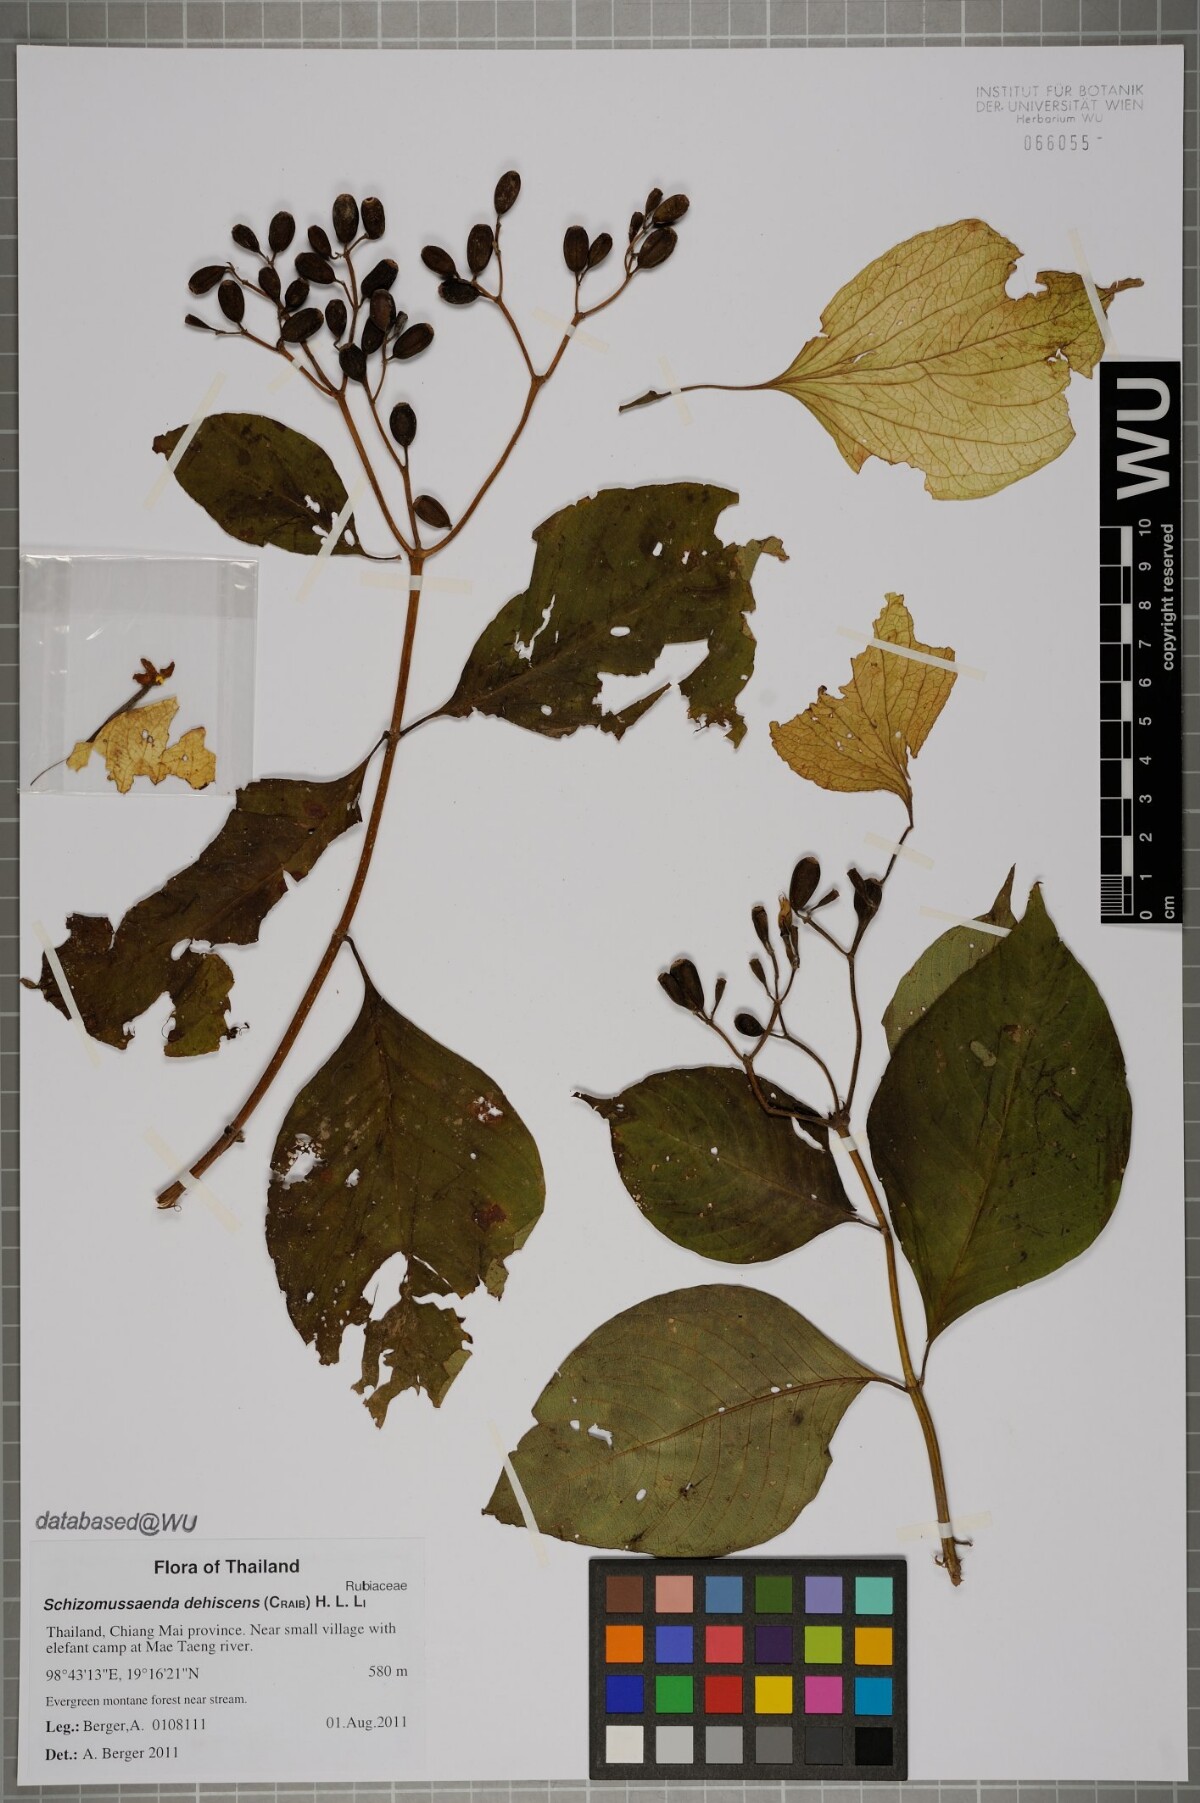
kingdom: Plantae
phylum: Tracheophyta
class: Magnoliopsida
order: Gentianales
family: Rubiaceae
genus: Schizomussaenda
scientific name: Schizomussaenda henryi
